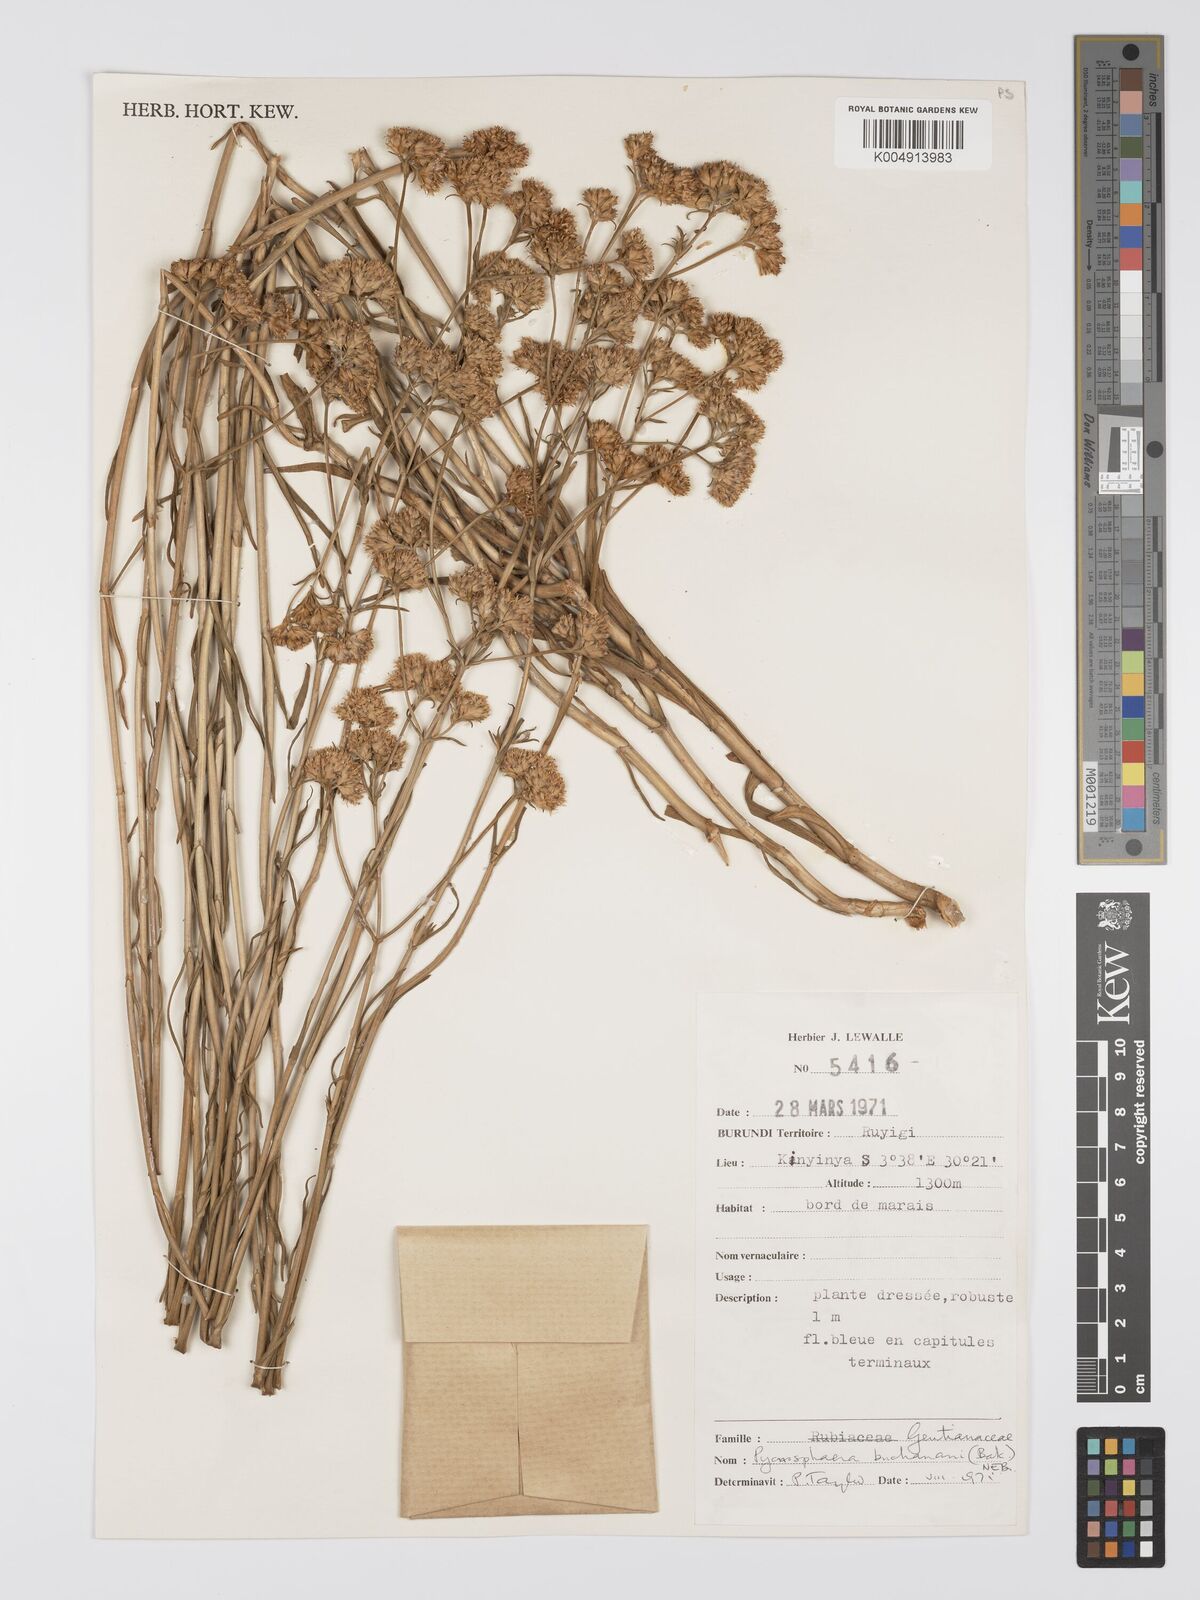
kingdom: Plantae
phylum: Tracheophyta
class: Magnoliopsida
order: Gentianales
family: Gentianaceae
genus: Pycnosphaera
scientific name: Pycnosphaera buchananii
